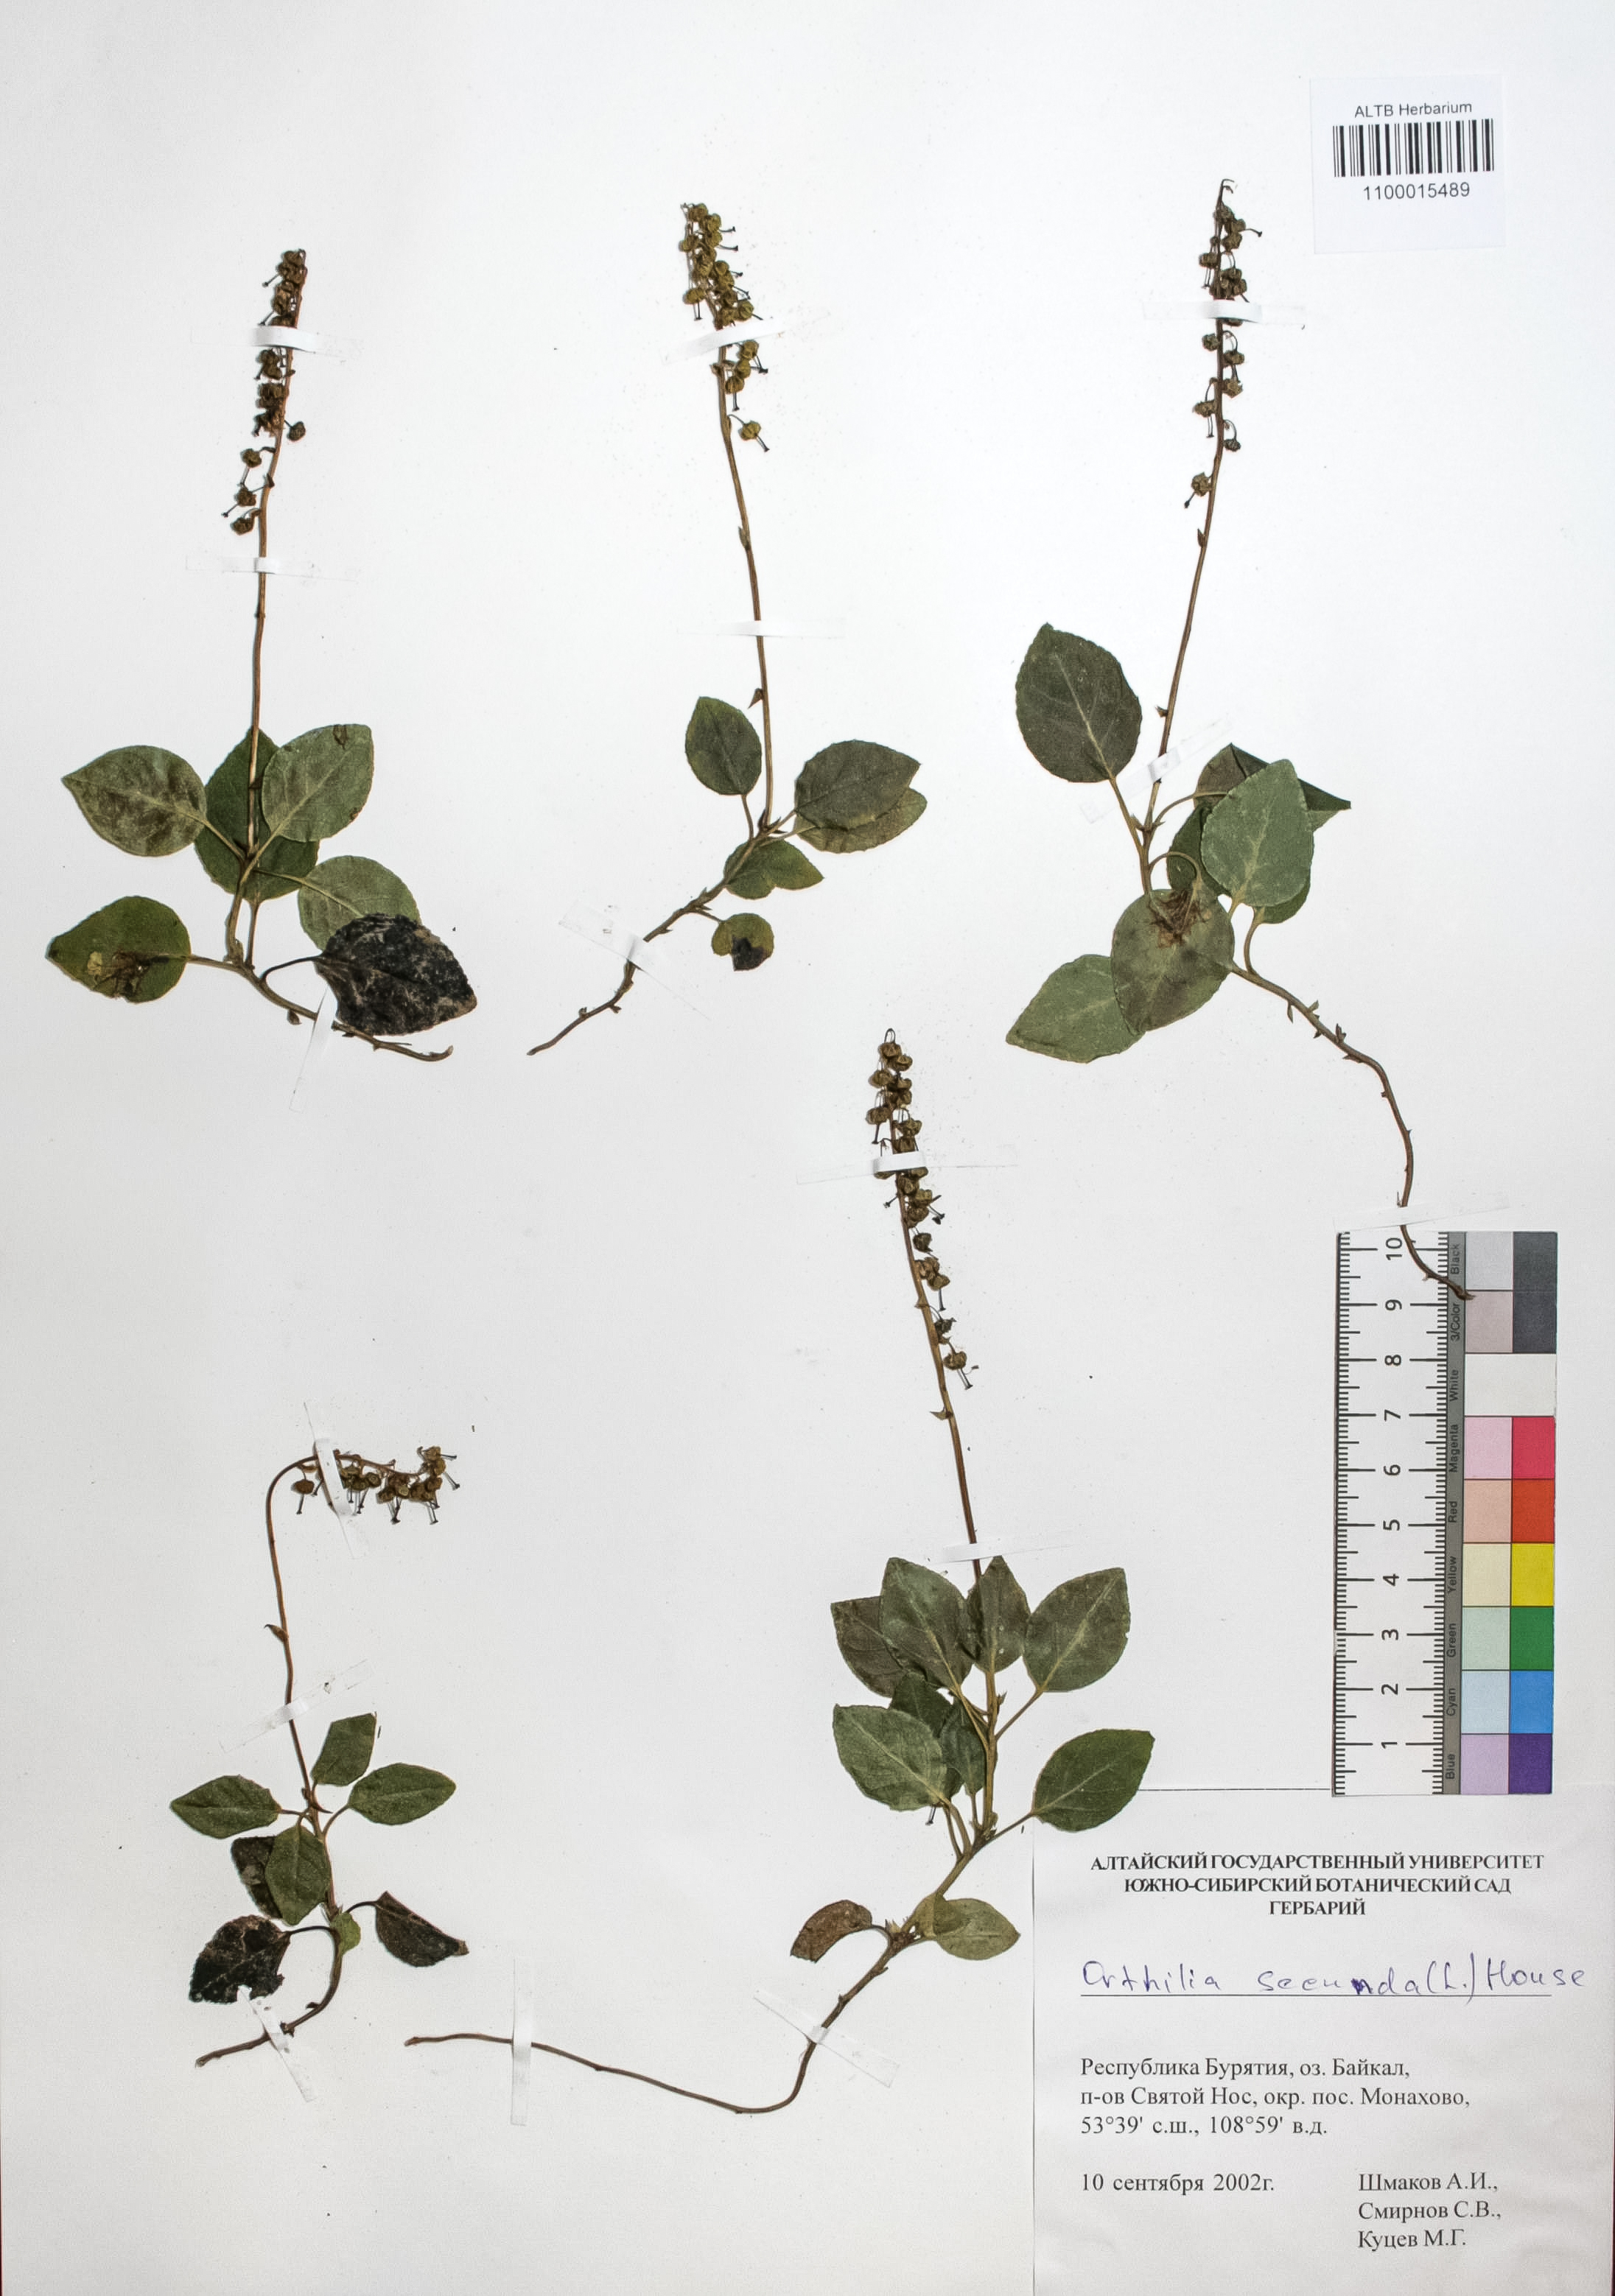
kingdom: Plantae
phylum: Tracheophyta
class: Magnoliopsida
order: Ericales
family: Ericaceae
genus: Orthilia
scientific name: Orthilia secunda
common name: One-sided orthilia
